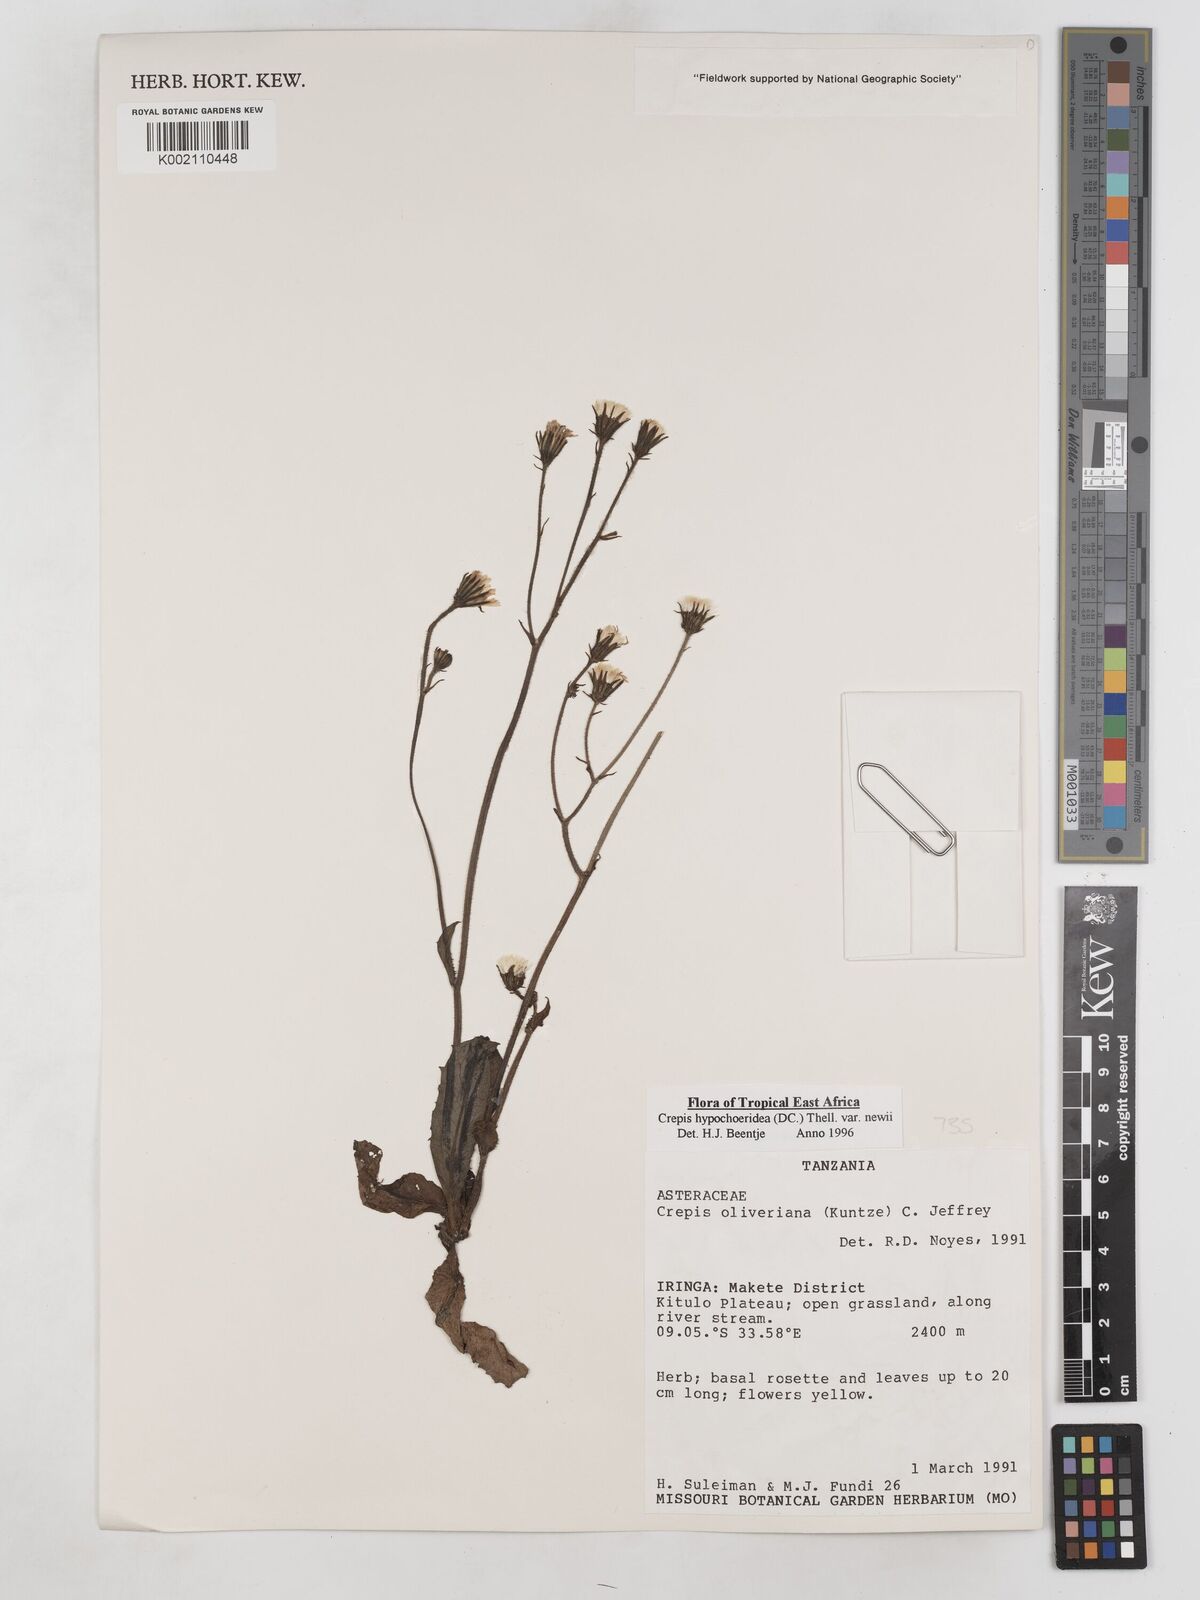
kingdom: Plantae
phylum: Tracheophyta
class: Magnoliopsida
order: Asterales
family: Asteraceae
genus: Crepis
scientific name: Crepis hypochoeridea
